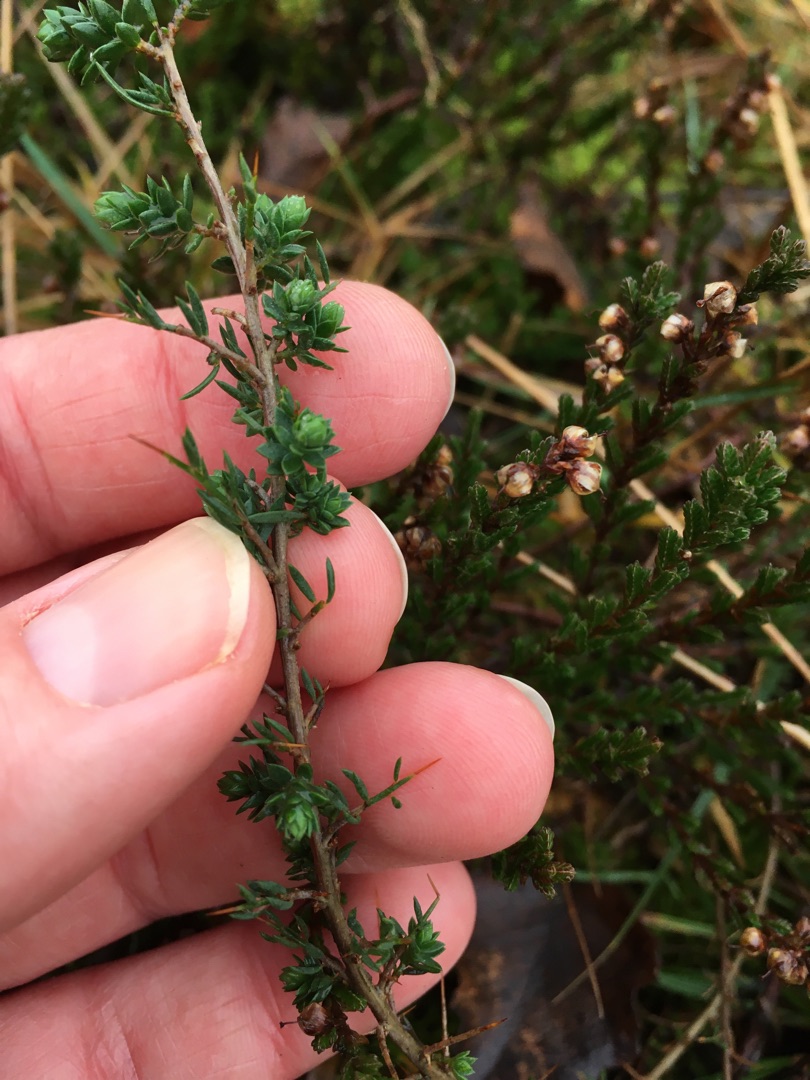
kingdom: Plantae
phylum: Tracheophyta
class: Magnoliopsida
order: Fabales
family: Fabaceae
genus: Genista
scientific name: Genista anglica
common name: Engelsk visse
